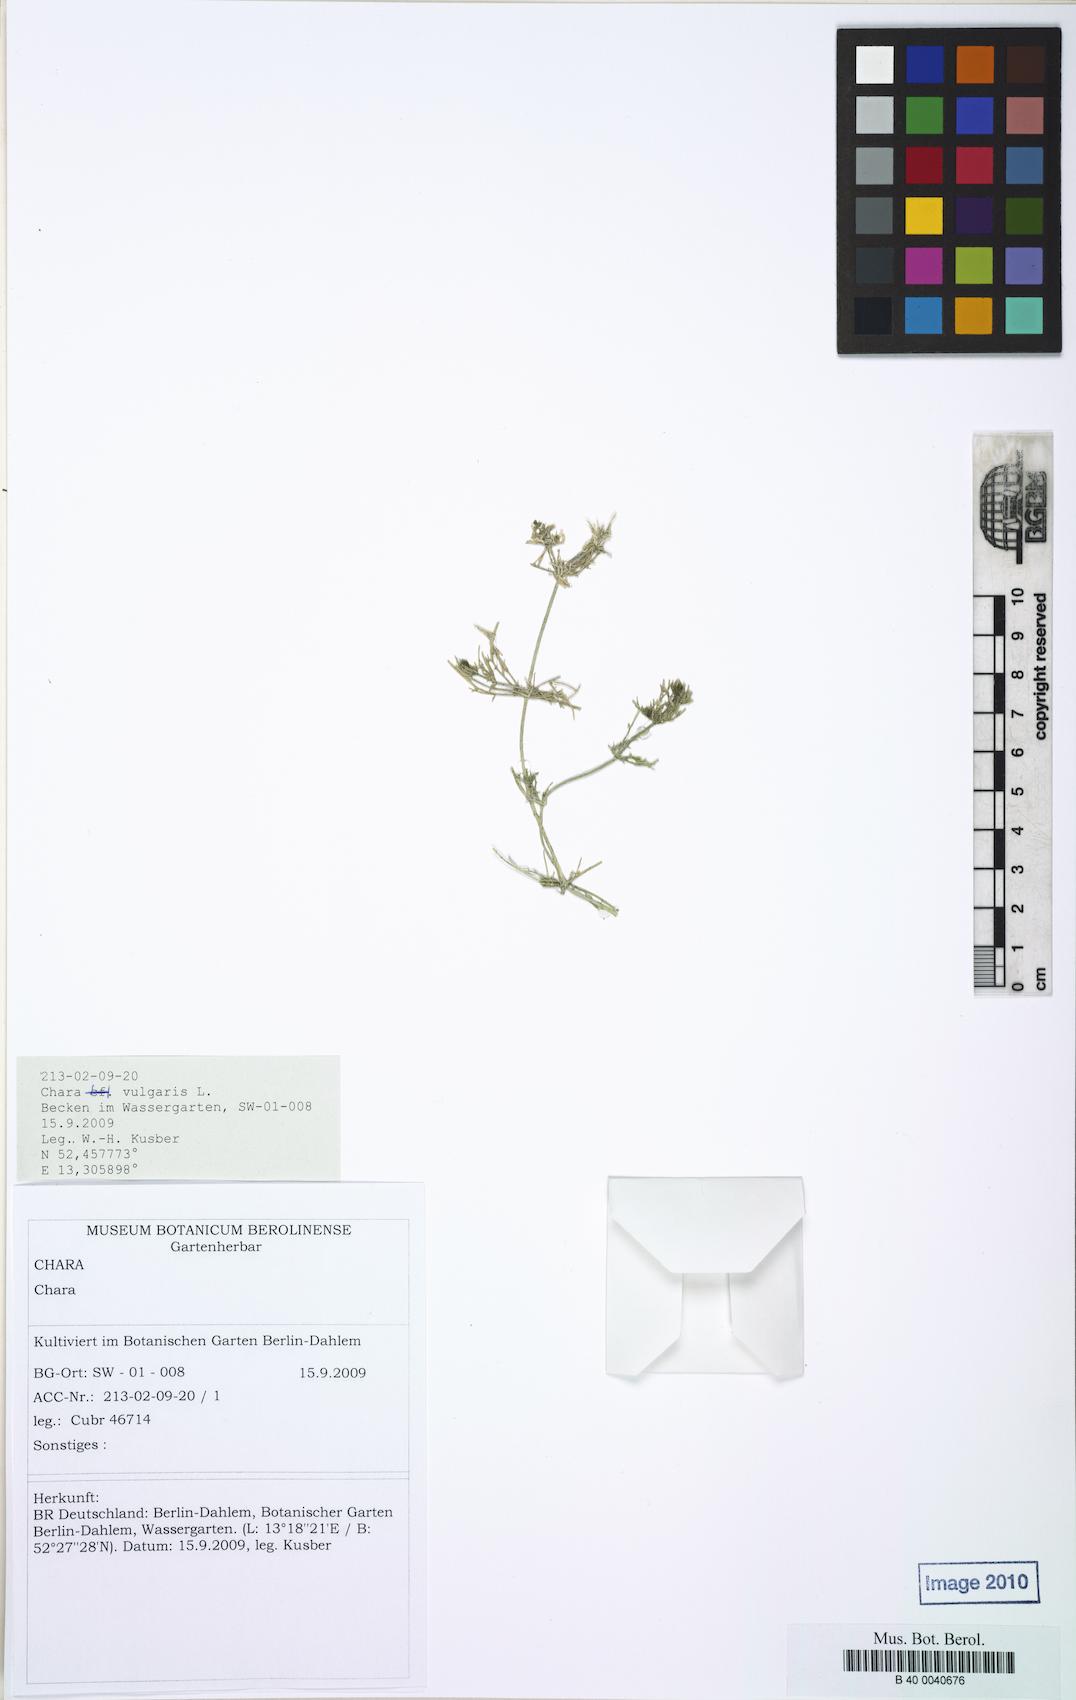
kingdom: Plantae
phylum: Charophyta
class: Charophyceae
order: Charales
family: Characeae
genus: Chara
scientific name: Chara vulgaris
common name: Common stonewort
